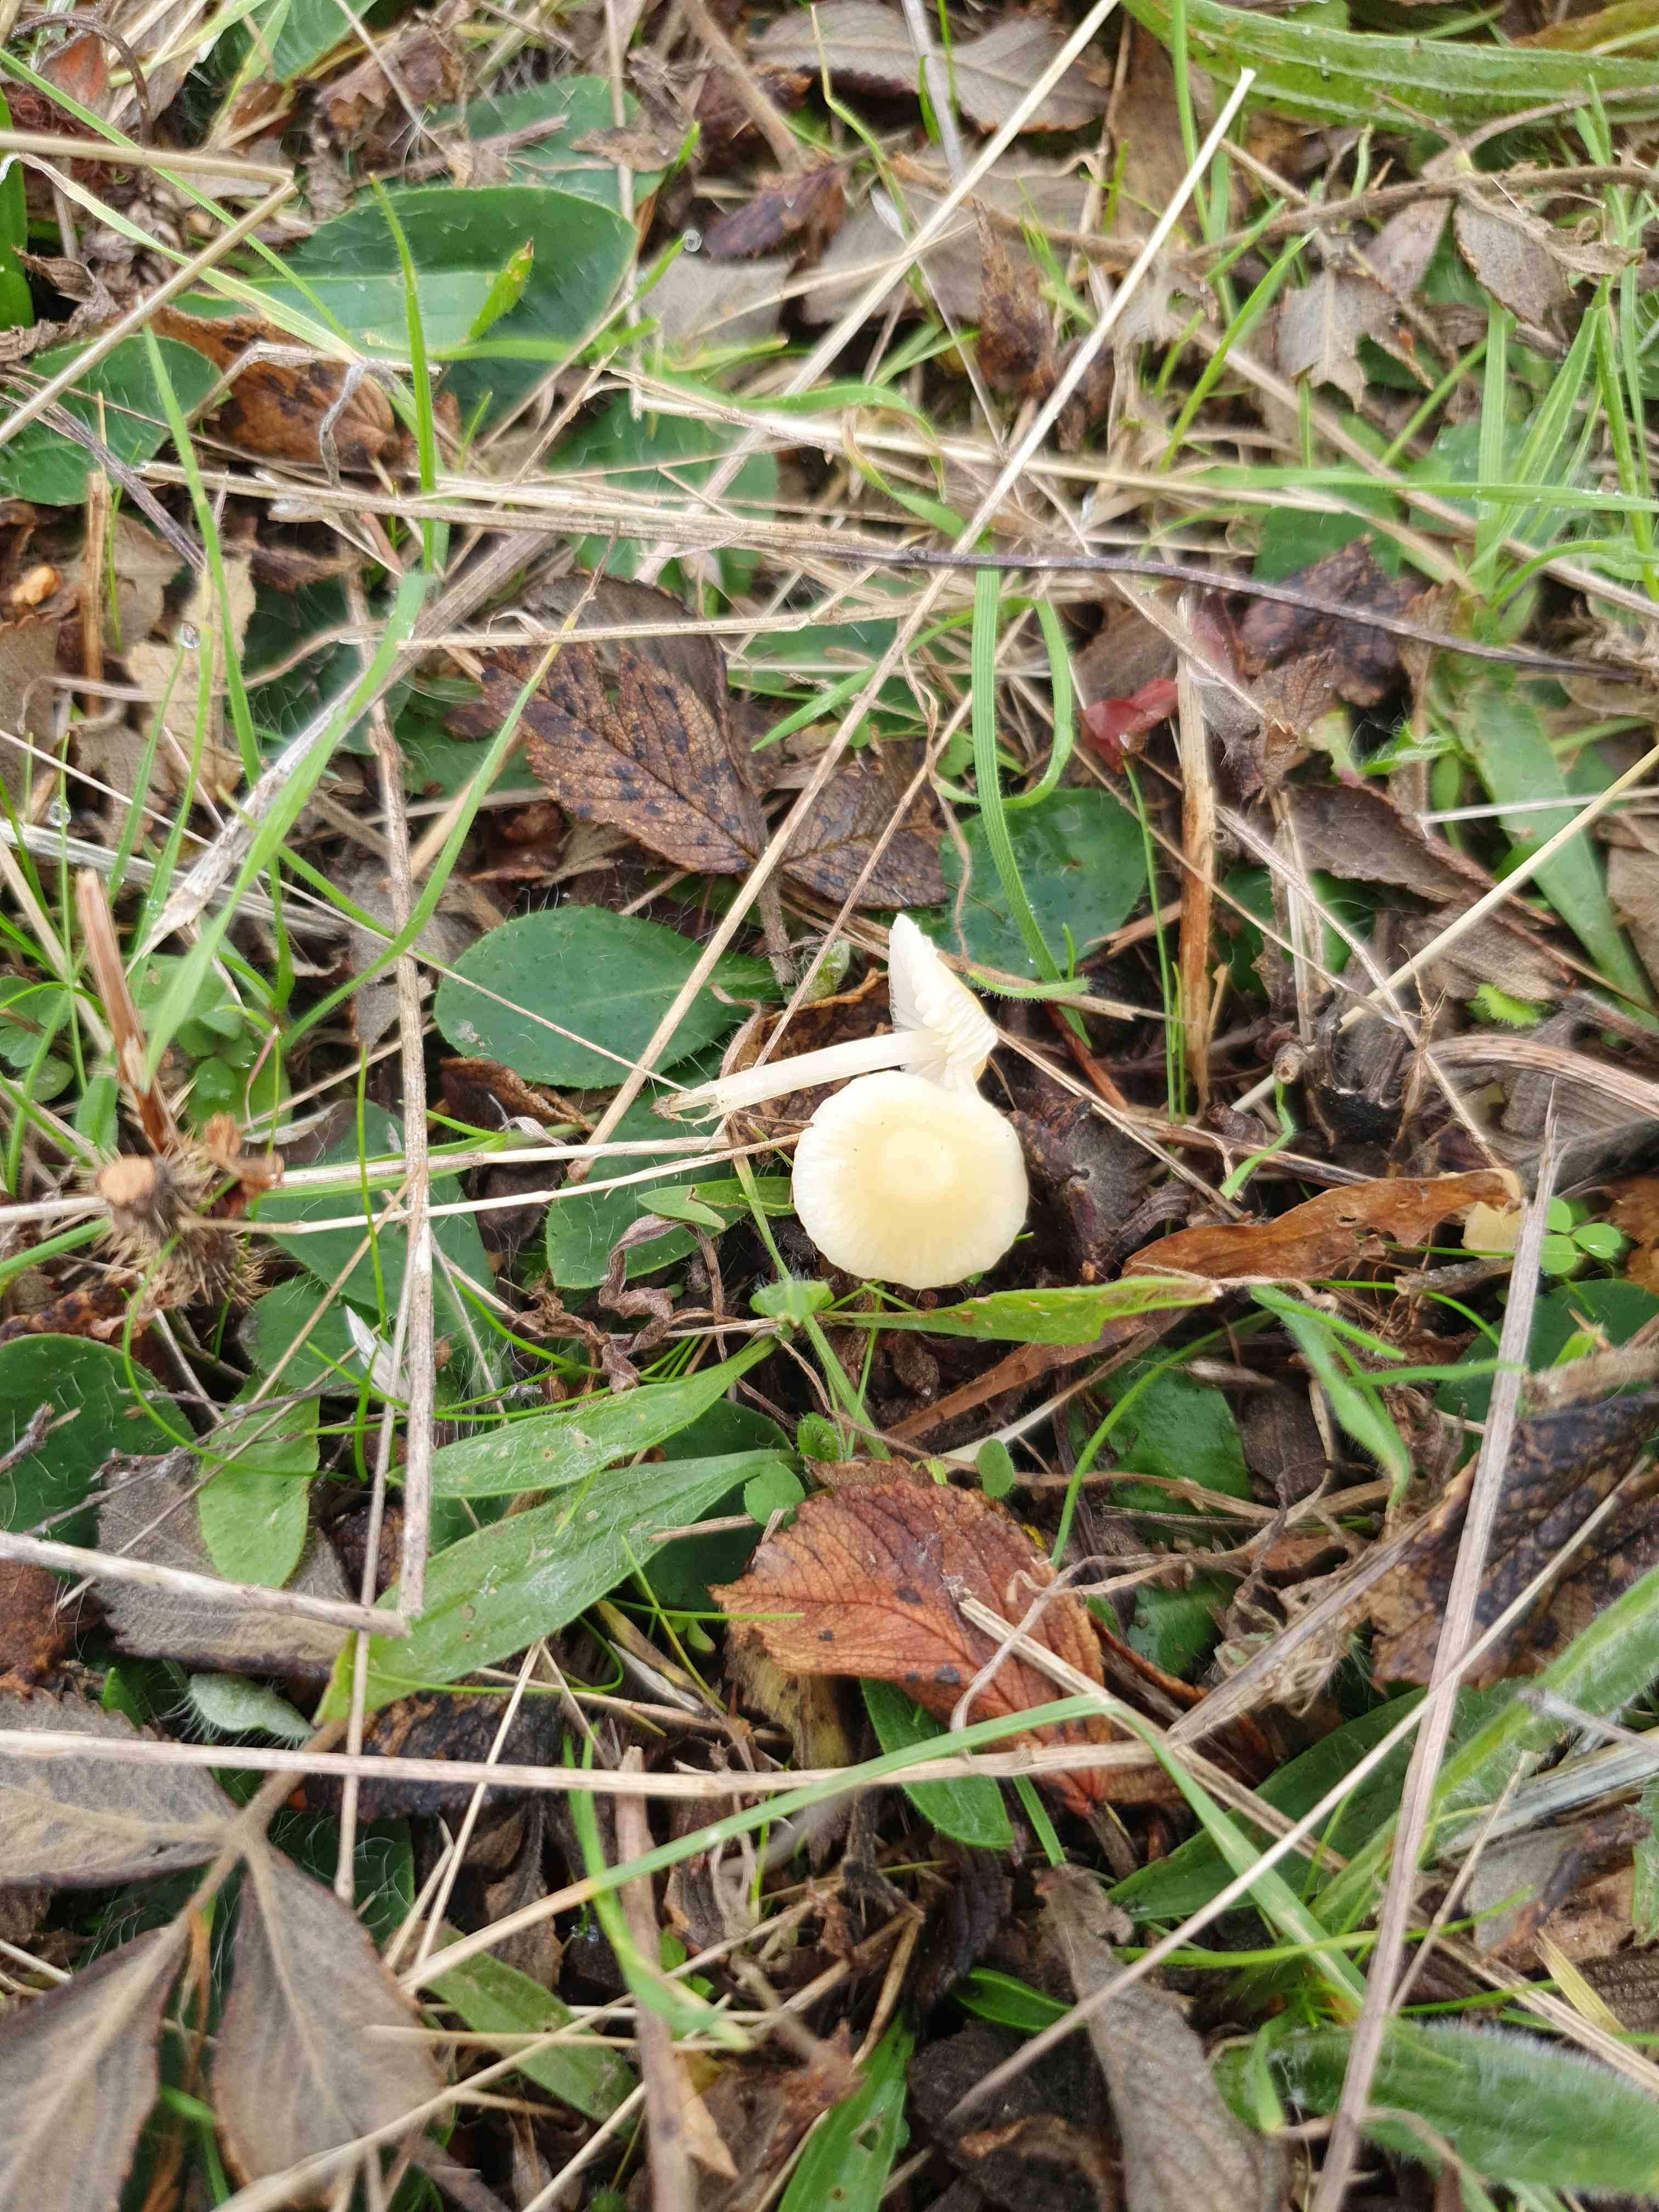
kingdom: Fungi
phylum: Basidiomycota
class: Agaricomycetes
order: Agaricales
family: Mycenaceae
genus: Atheniella
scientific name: Atheniella flavoalba
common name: gulhvid huesvamp
